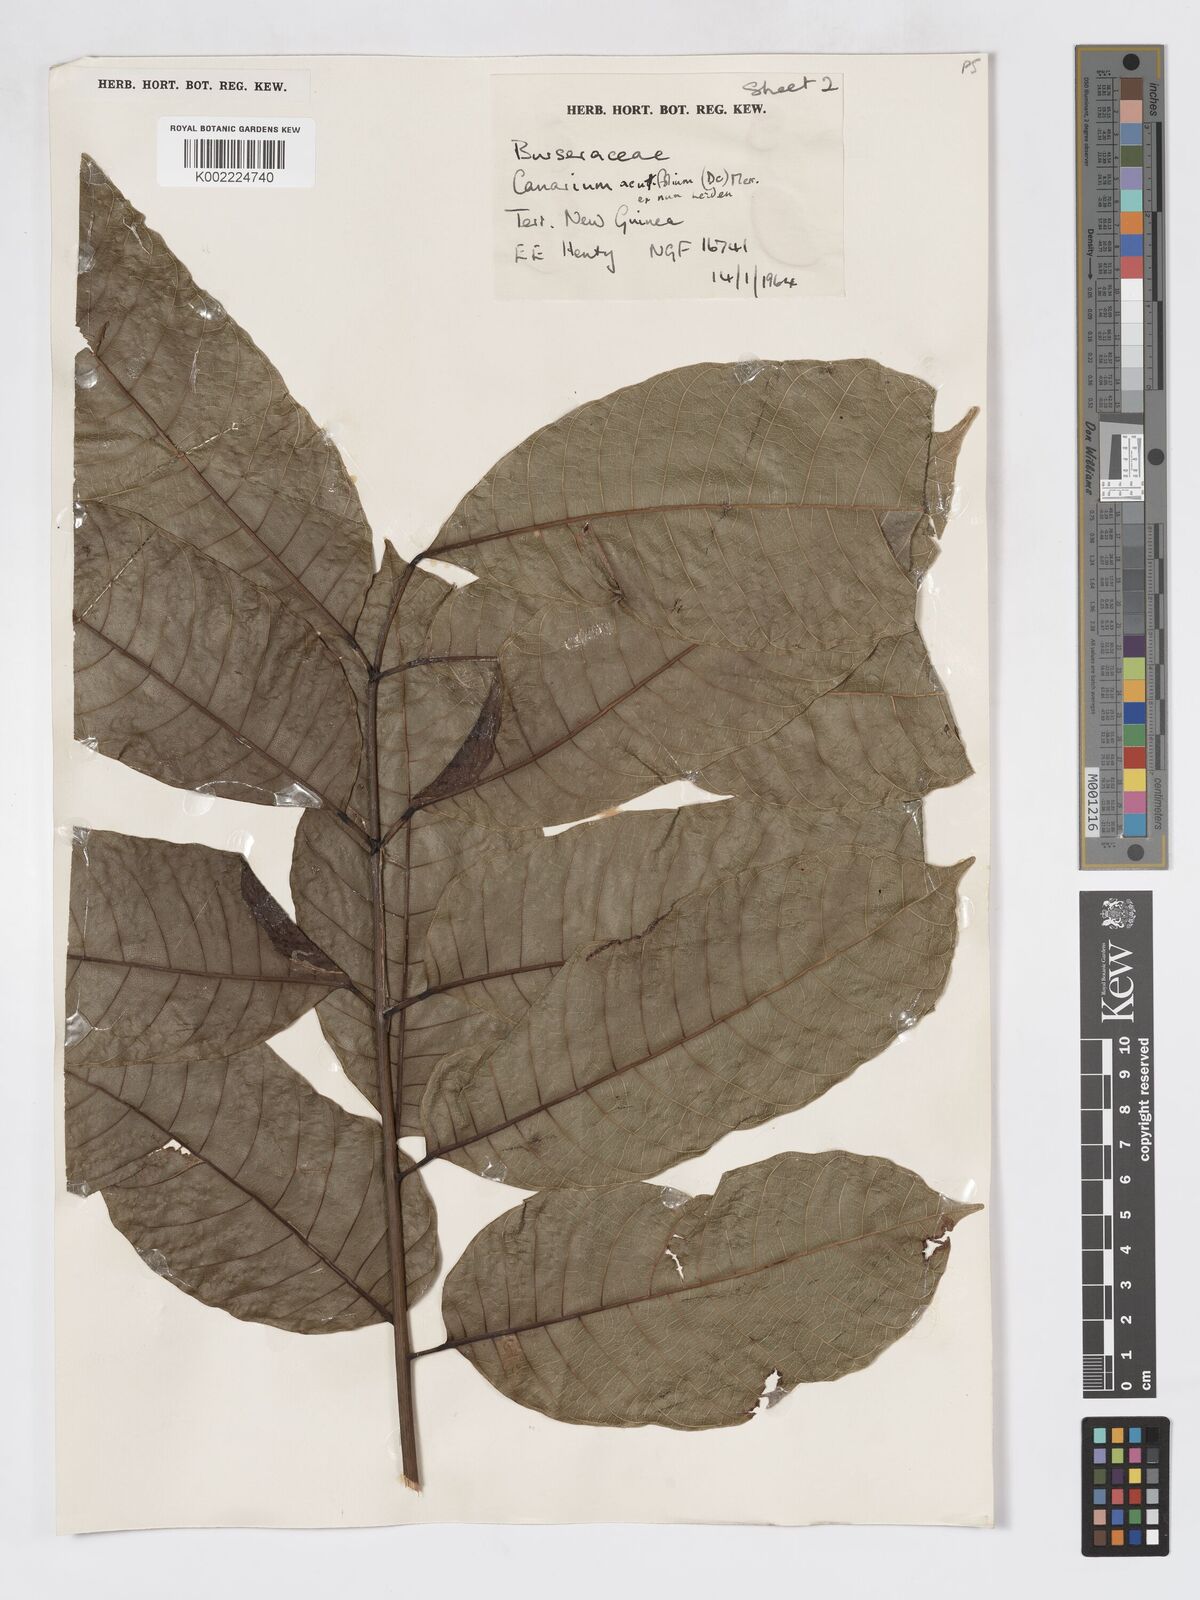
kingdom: Plantae
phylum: Tracheophyta
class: Magnoliopsida
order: Sapindales
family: Burseraceae
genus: Canarium
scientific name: Canarium acutifolium
